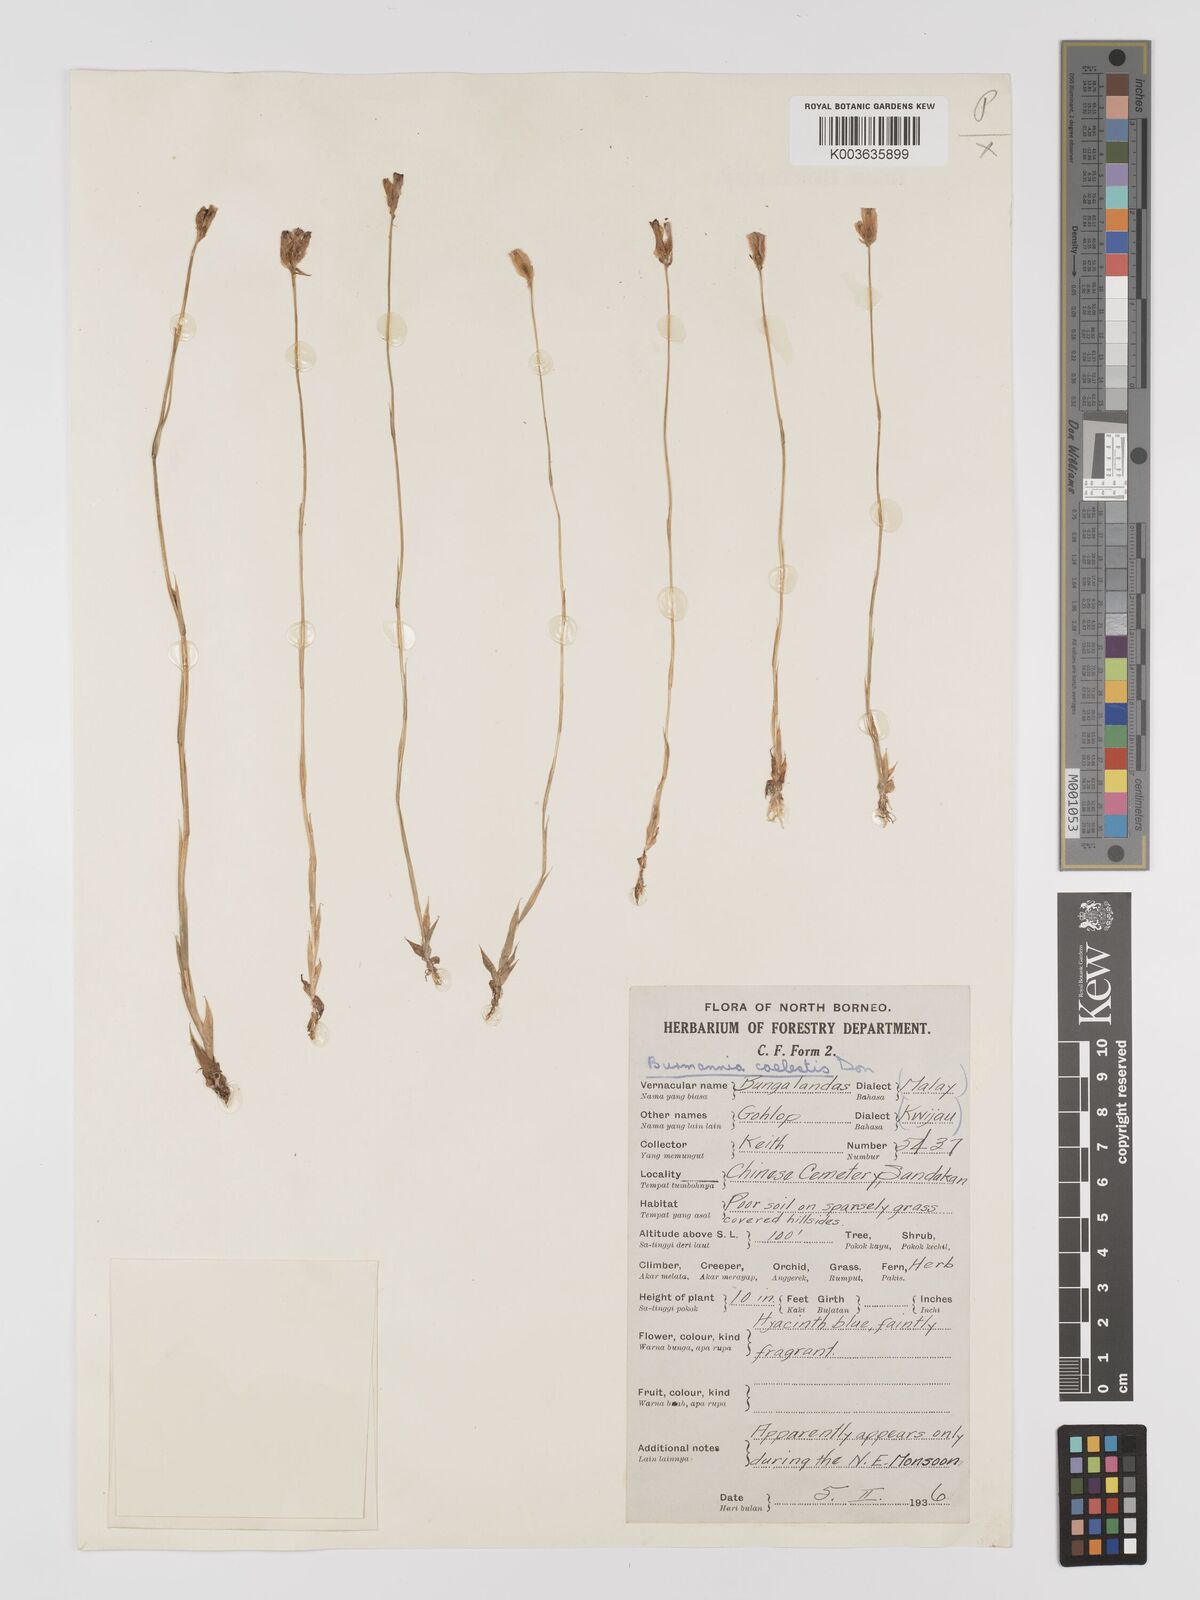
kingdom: Plantae
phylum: Tracheophyta
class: Liliopsida
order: Dioscoreales
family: Burmanniaceae
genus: Burmannia
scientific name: Burmannia coelestis
